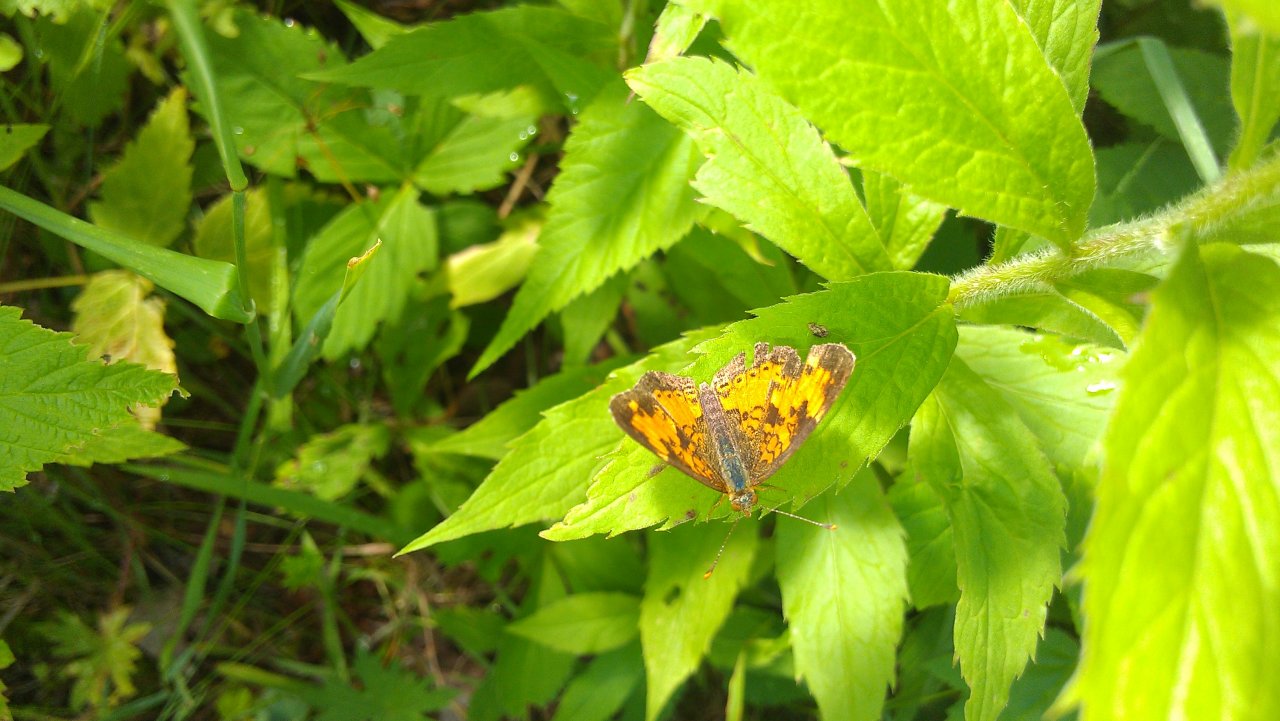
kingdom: Animalia
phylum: Arthropoda
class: Insecta
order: Lepidoptera
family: Nymphalidae
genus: Phyciodes
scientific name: Phyciodes tharos
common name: Northern Crescent
